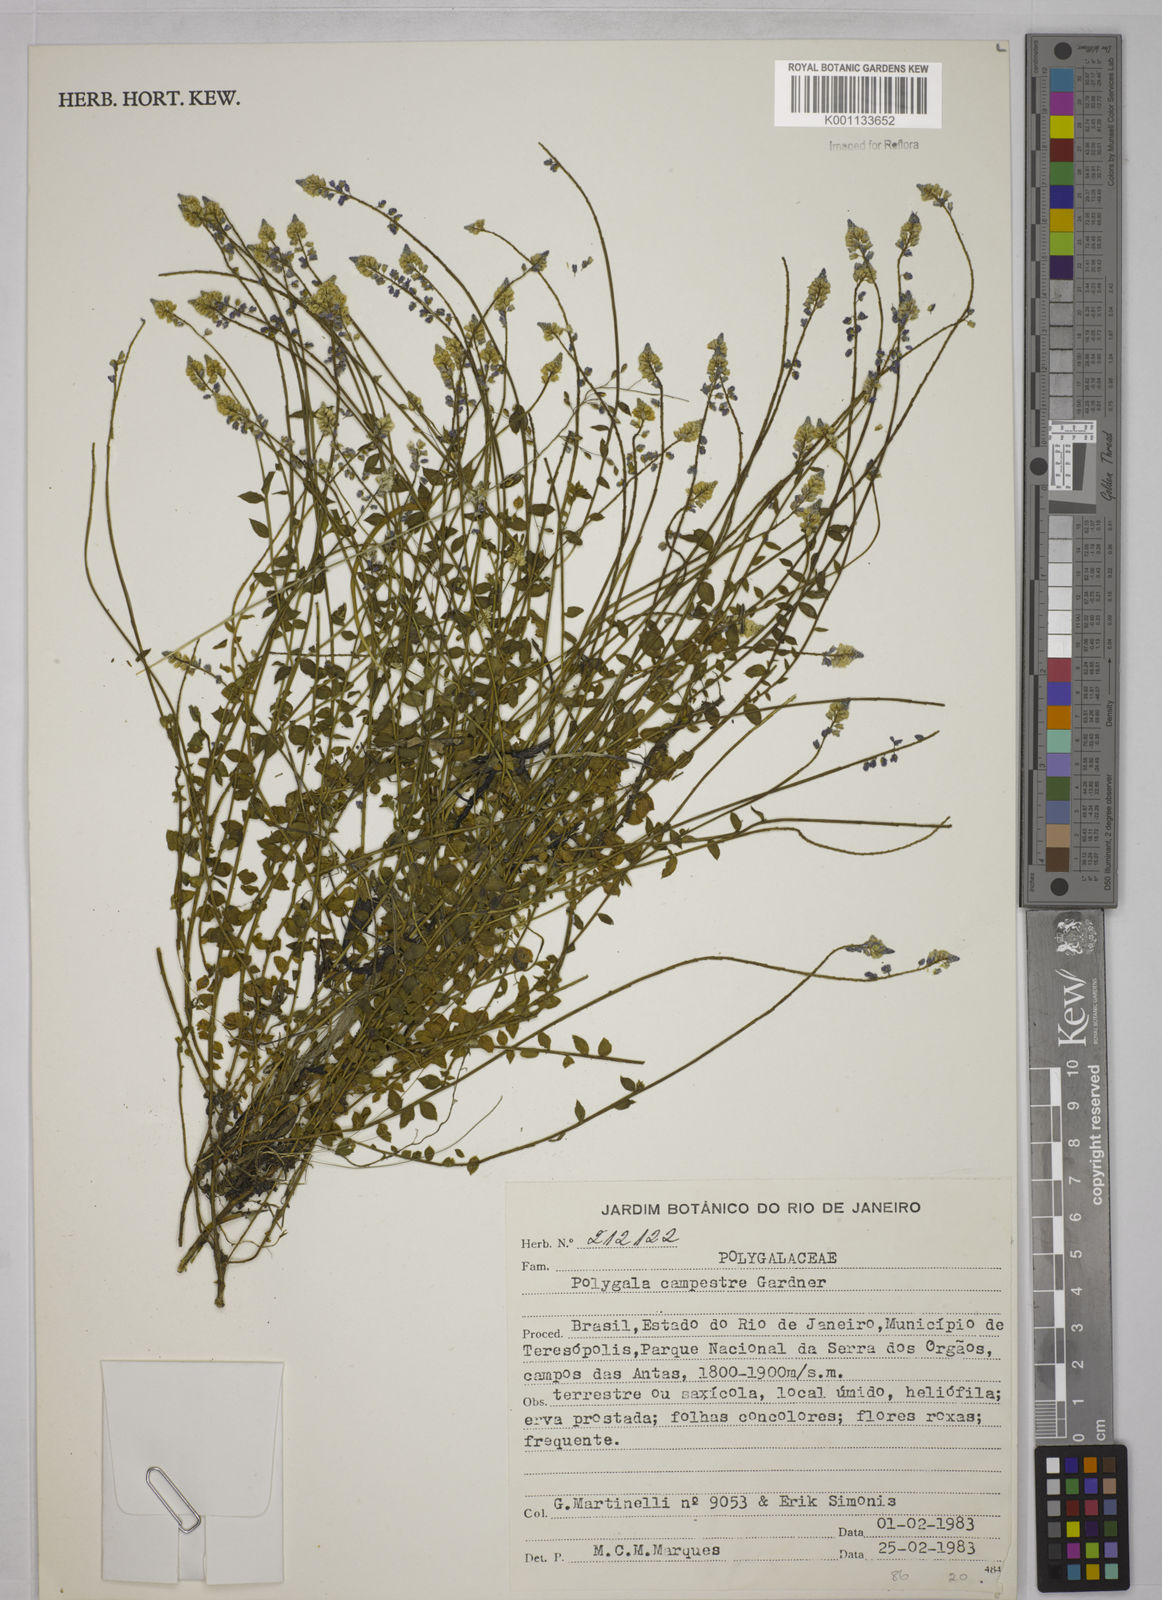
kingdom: Plantae
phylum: Tracheophyta
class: Magnoliopsida
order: Fabales
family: Polygalaceae
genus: Polygala
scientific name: Polygala campestris
